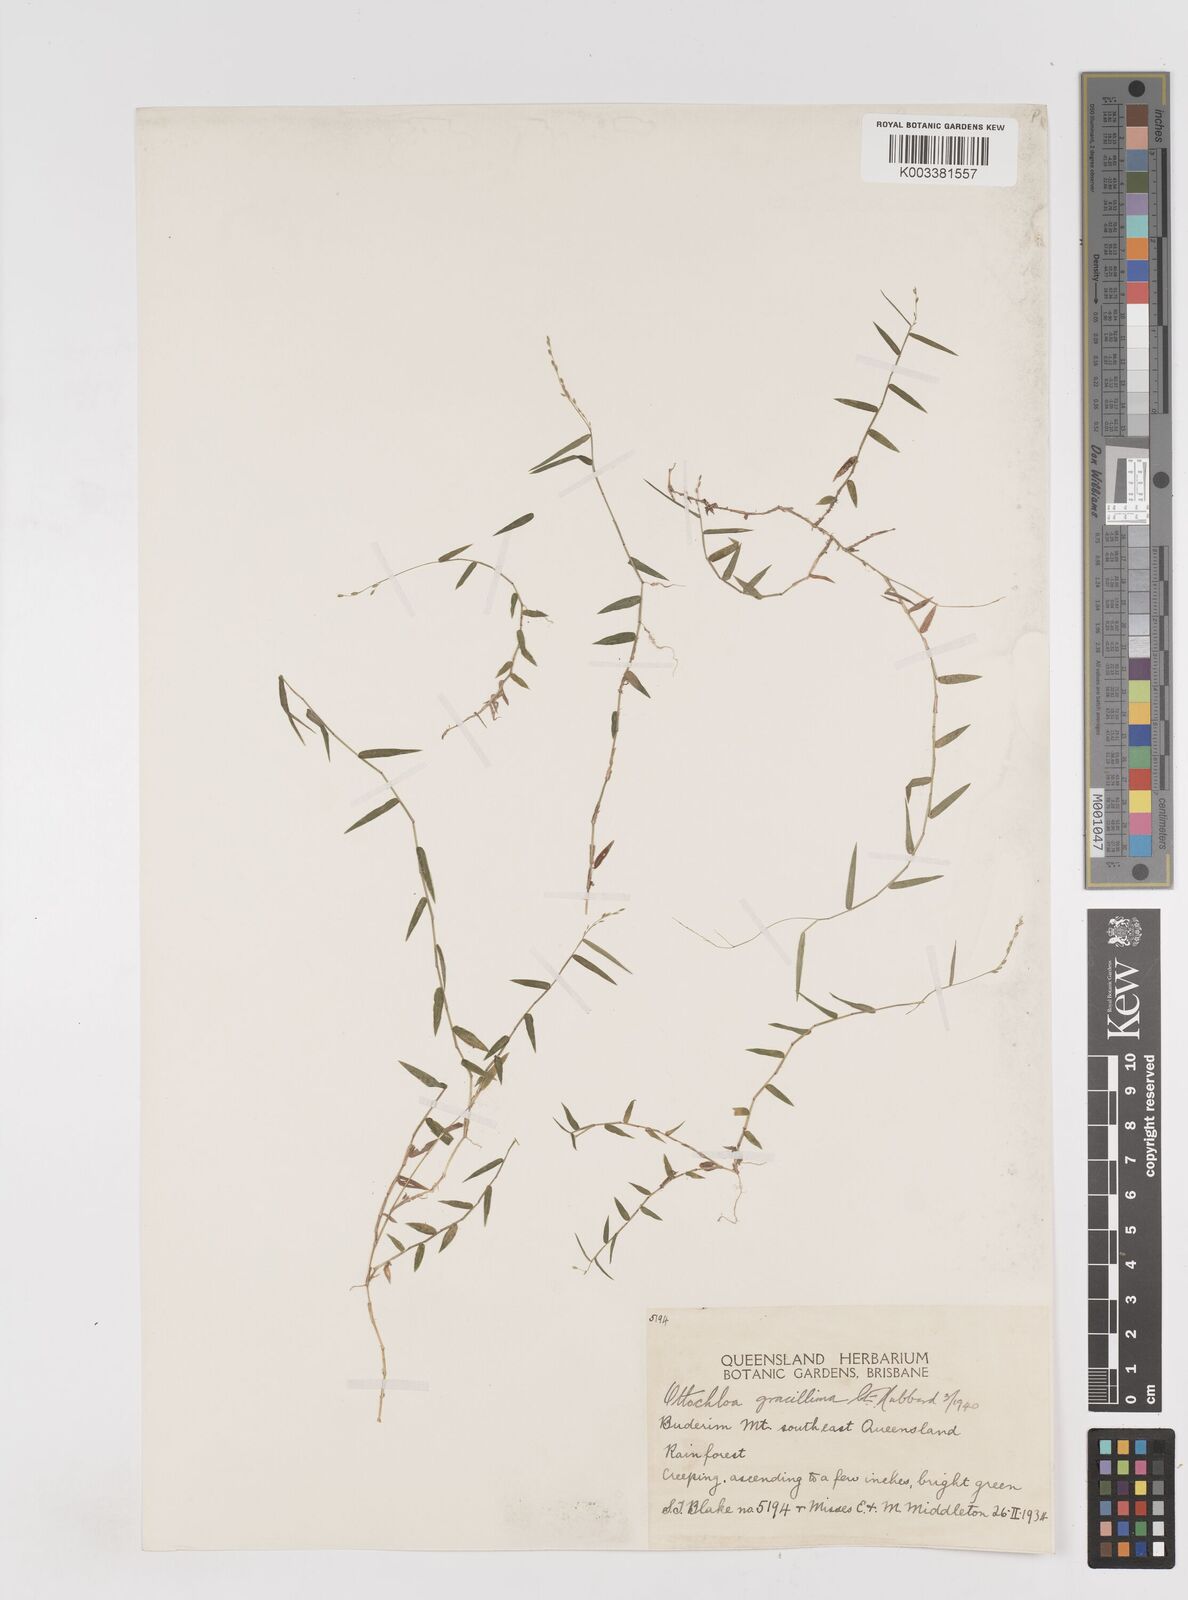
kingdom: Plantae
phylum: Tracheophyta
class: Liliopsida
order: Poales
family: Poaceae
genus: Ottochloa
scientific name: Ottochloa gracillima
